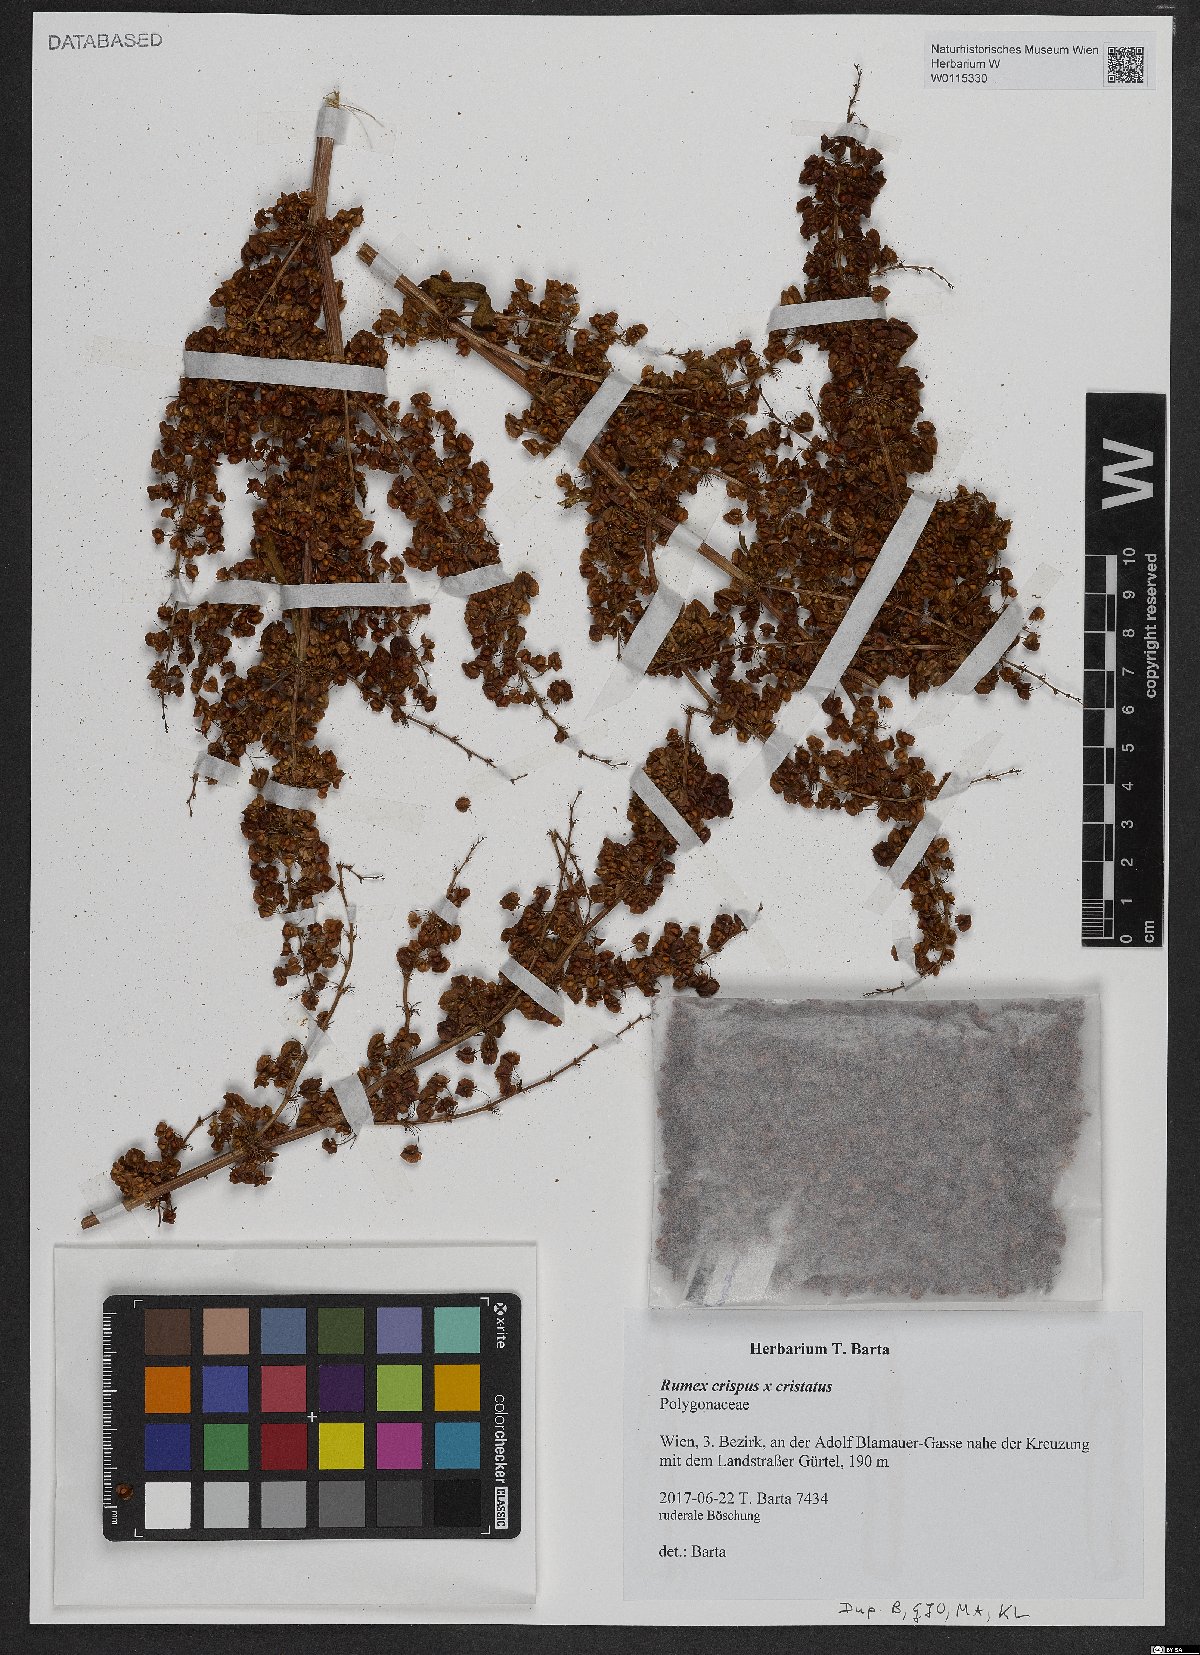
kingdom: Plantae
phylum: Tracheophyta
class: Magnoliopsida
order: Caryophyllales
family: Polygonaceae
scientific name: Polygonaceae
